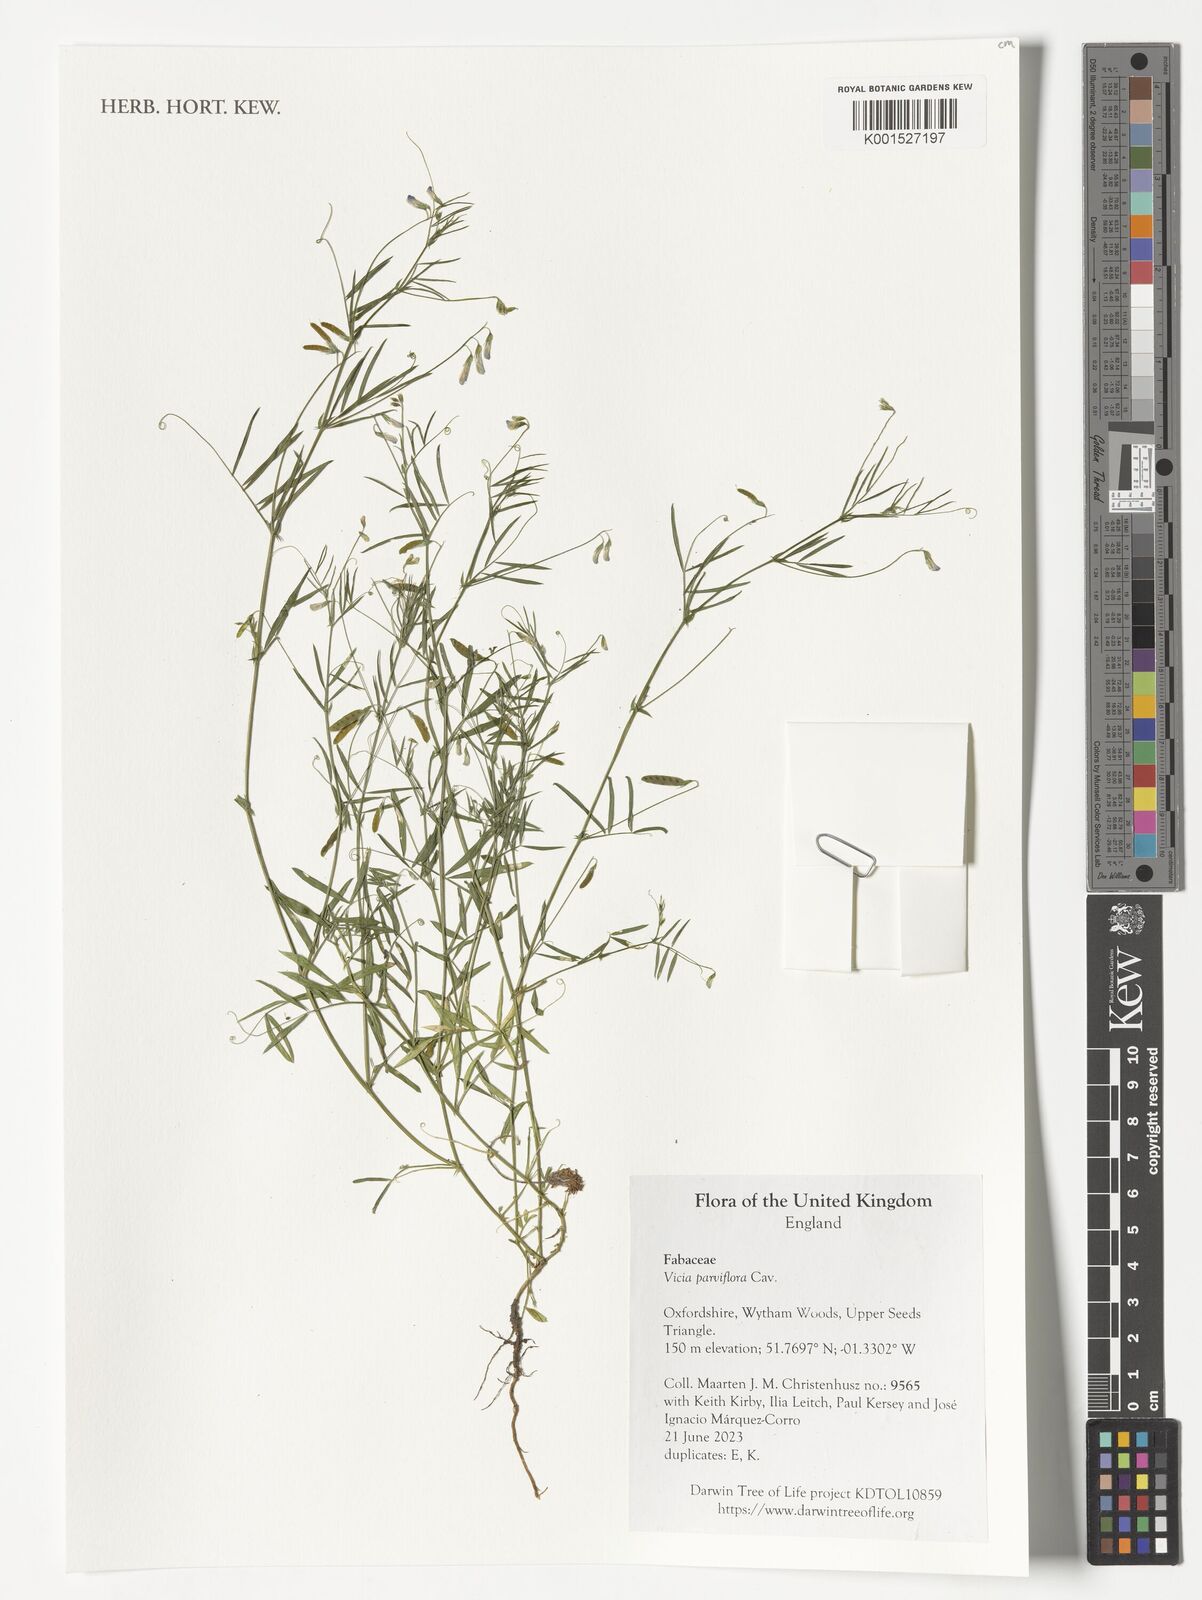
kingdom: Plantae
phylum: Tracheophyta
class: Magnoliopsida
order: Fabales
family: Fabaceae
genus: Vicia
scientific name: Vicia parviflora
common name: Slender tare
